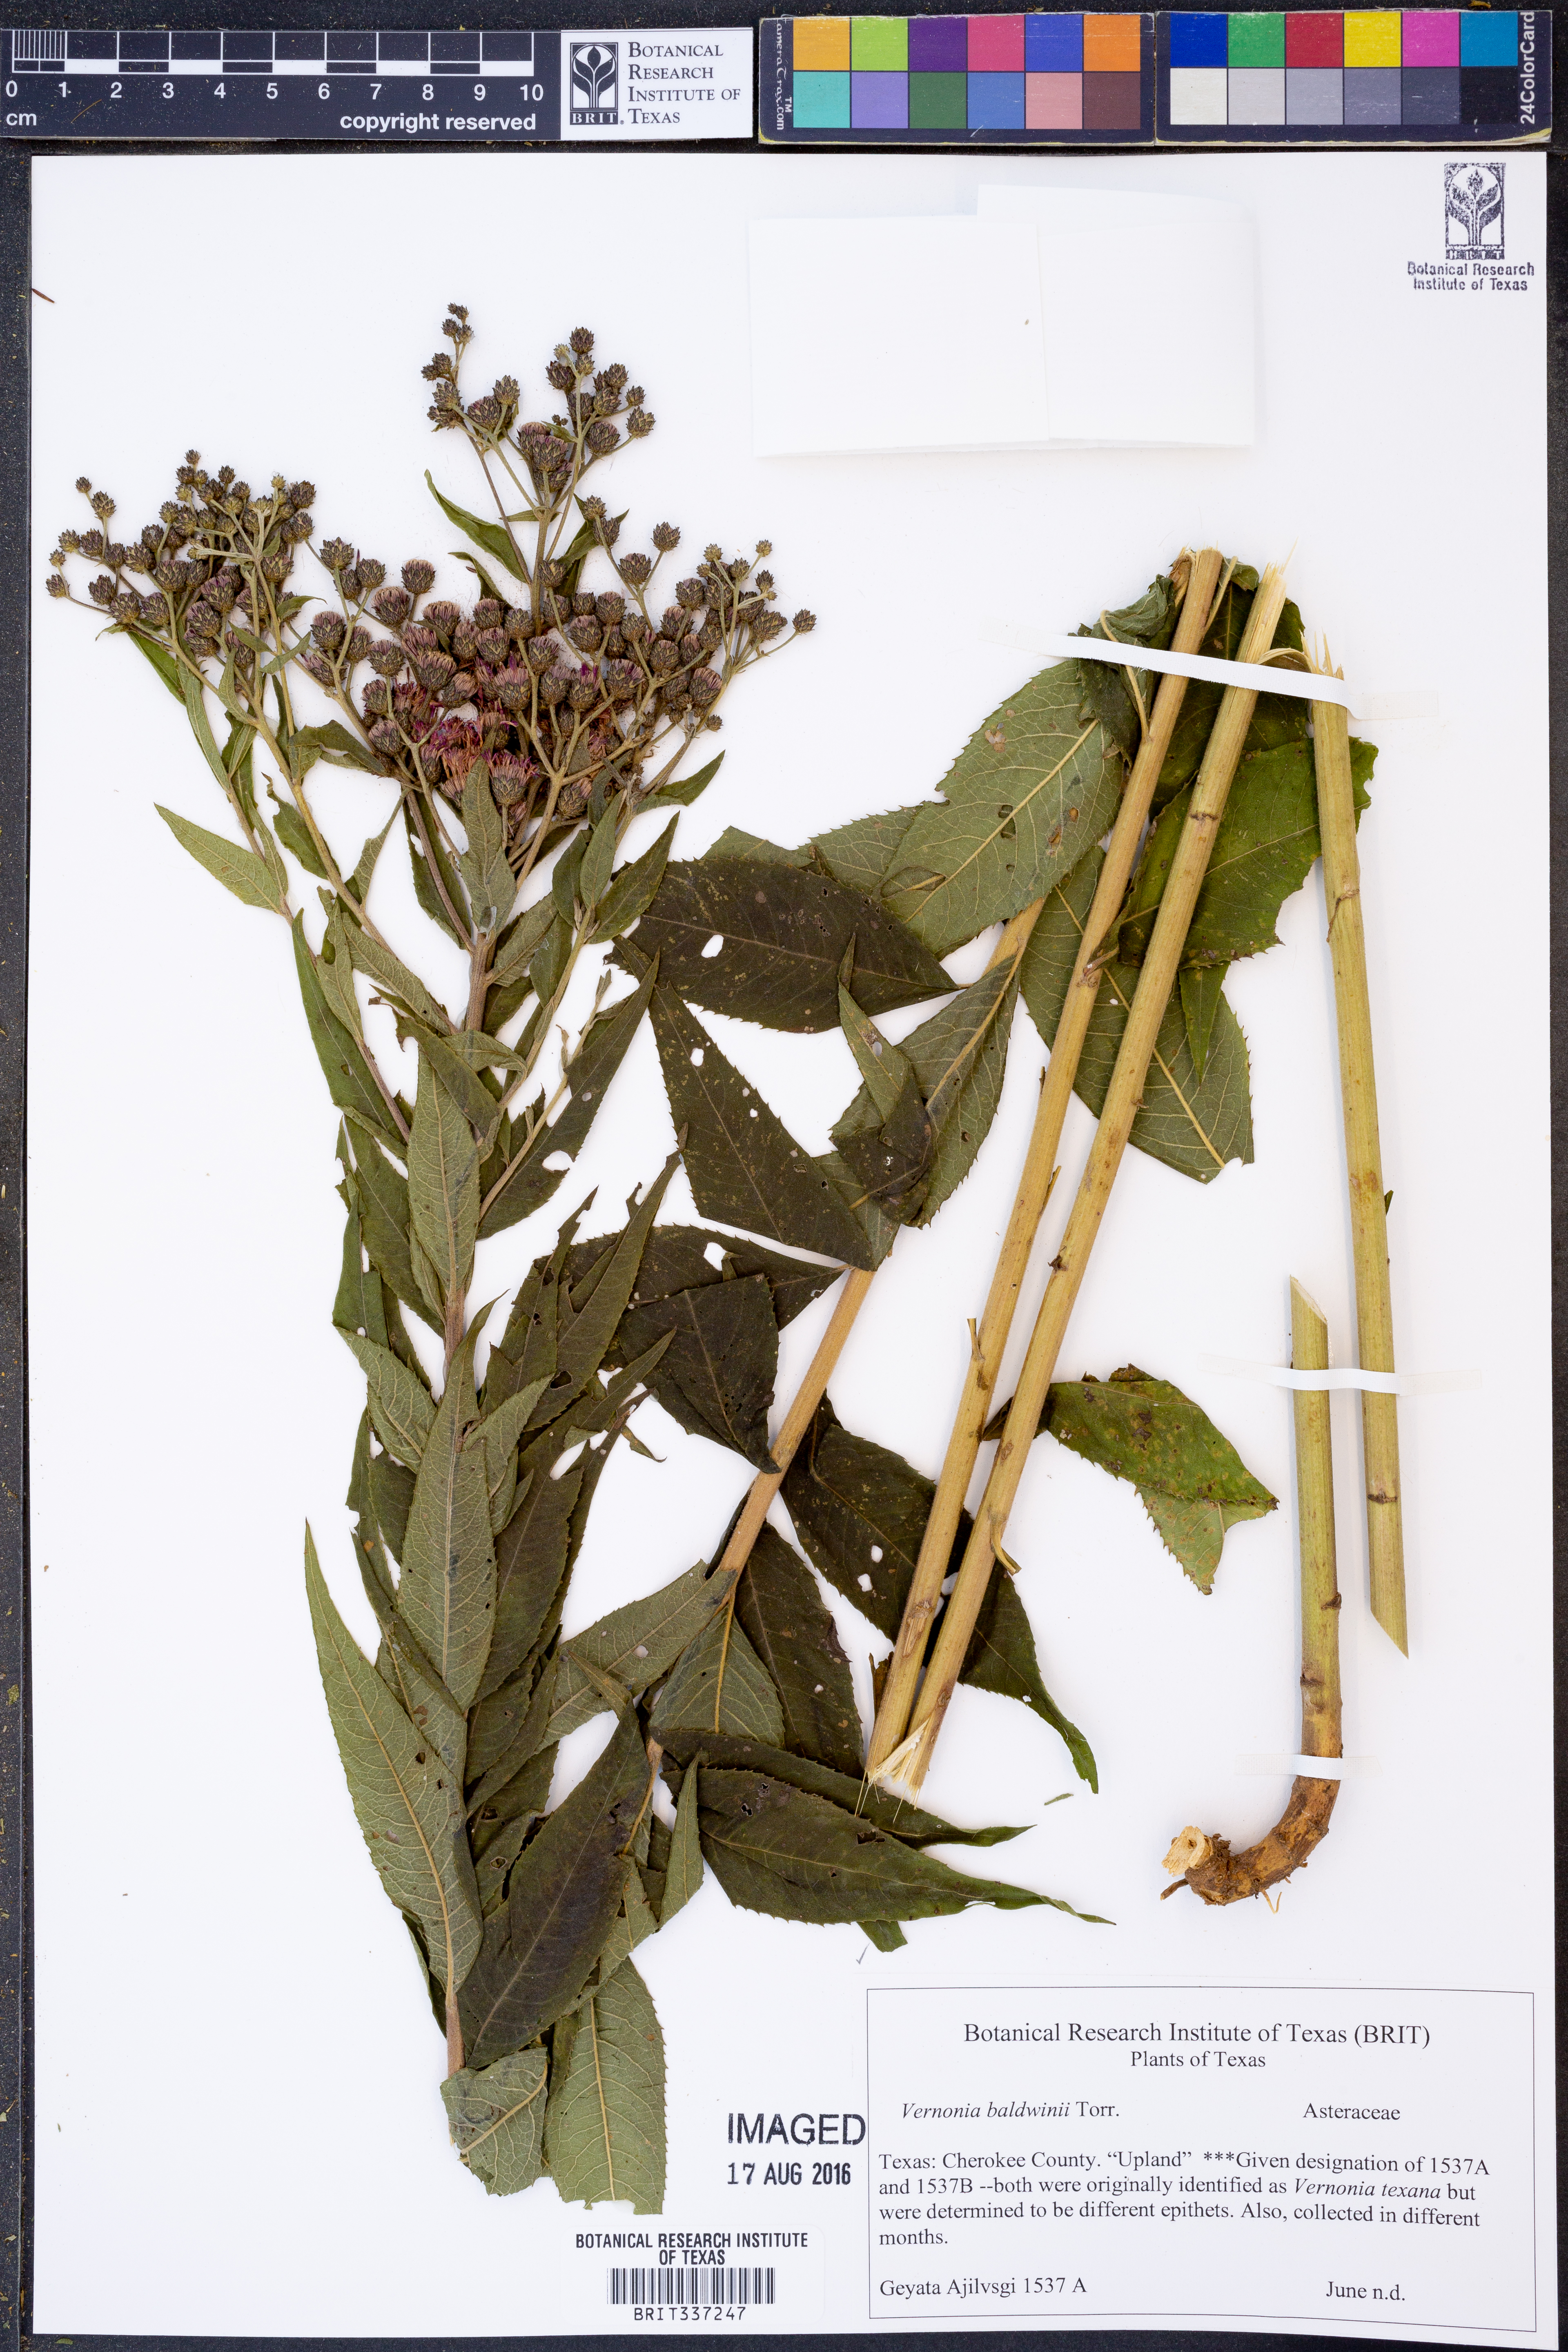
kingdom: Plantae
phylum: Tracheophyta
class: Magnoliopsida
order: Asterales
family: Asteraceae
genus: Vernonia
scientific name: Vernonia baldwinii
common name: Western ironweed
